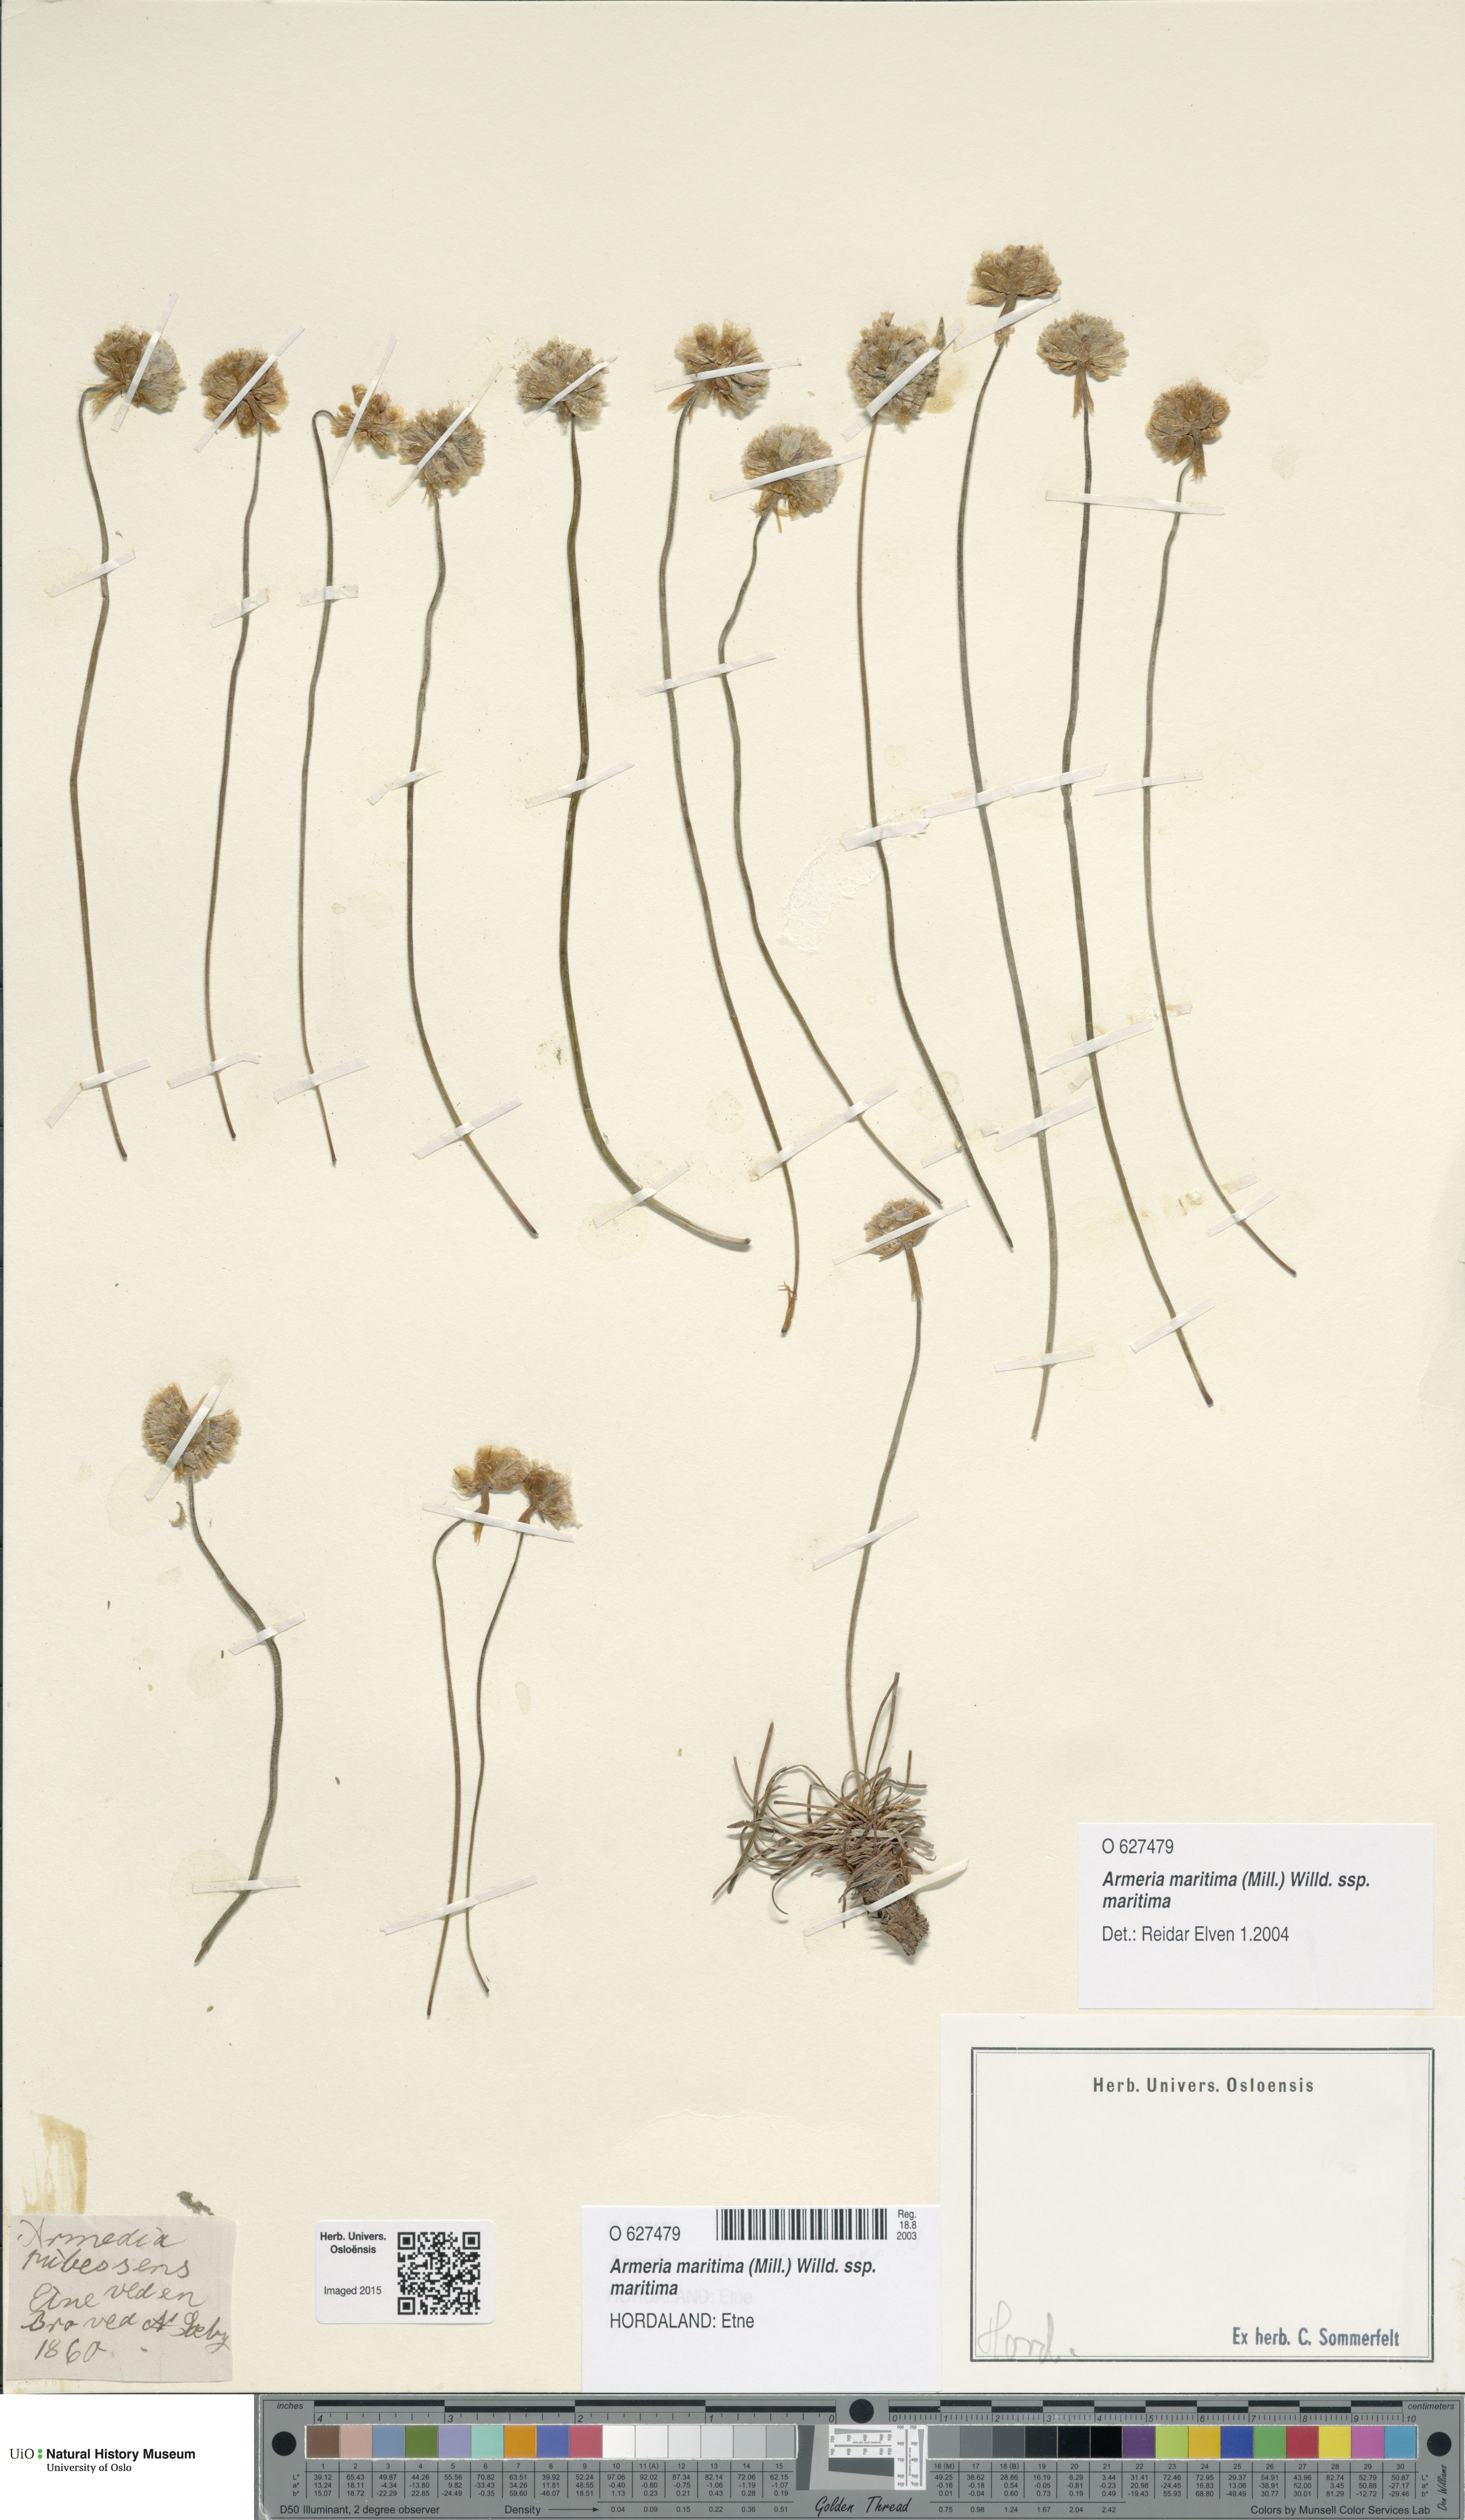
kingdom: Plantae
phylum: Tracheophyta
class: Magnoliopsida
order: Caryophyllales
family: Plumbaginaceae
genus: Armeria
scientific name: Armeria maritima
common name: Thrift
